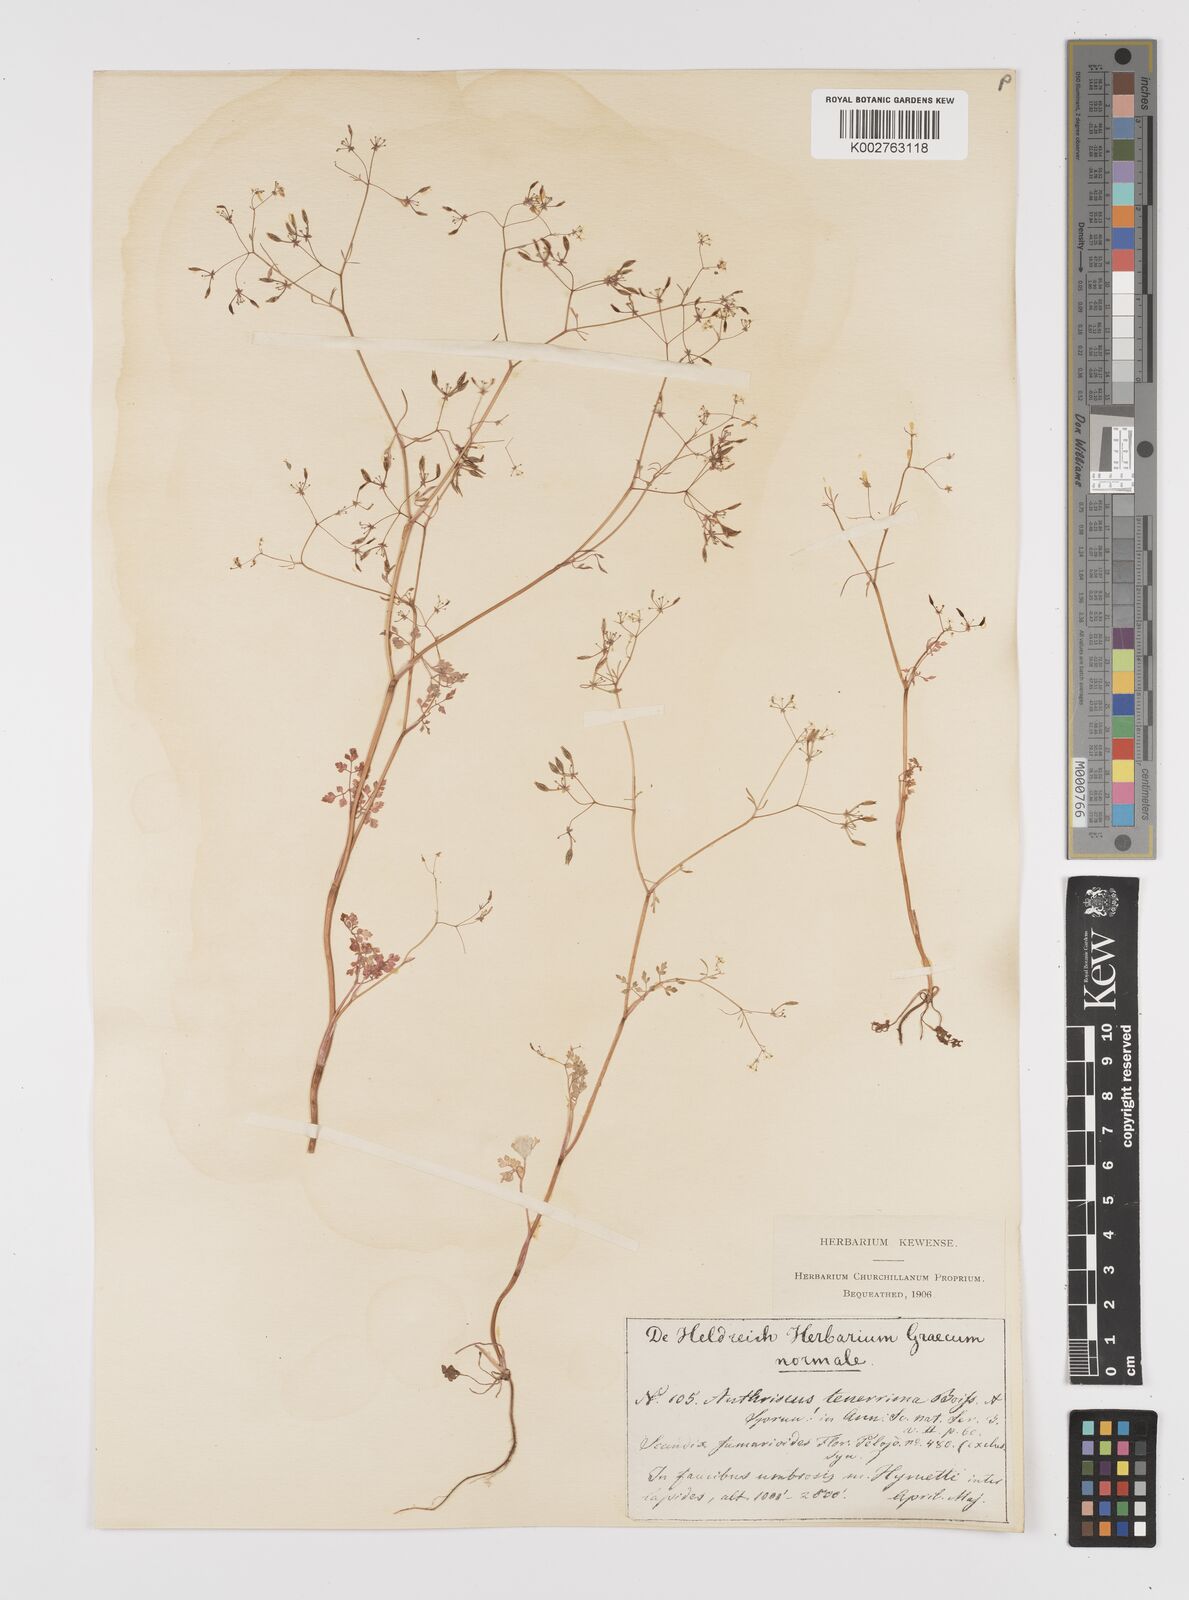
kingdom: Plantae
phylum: Tracheophyta
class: Magnoliopsida
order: Apiales
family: Apiaceae
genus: Anthriscus
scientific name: Anthriscus tenerrima
